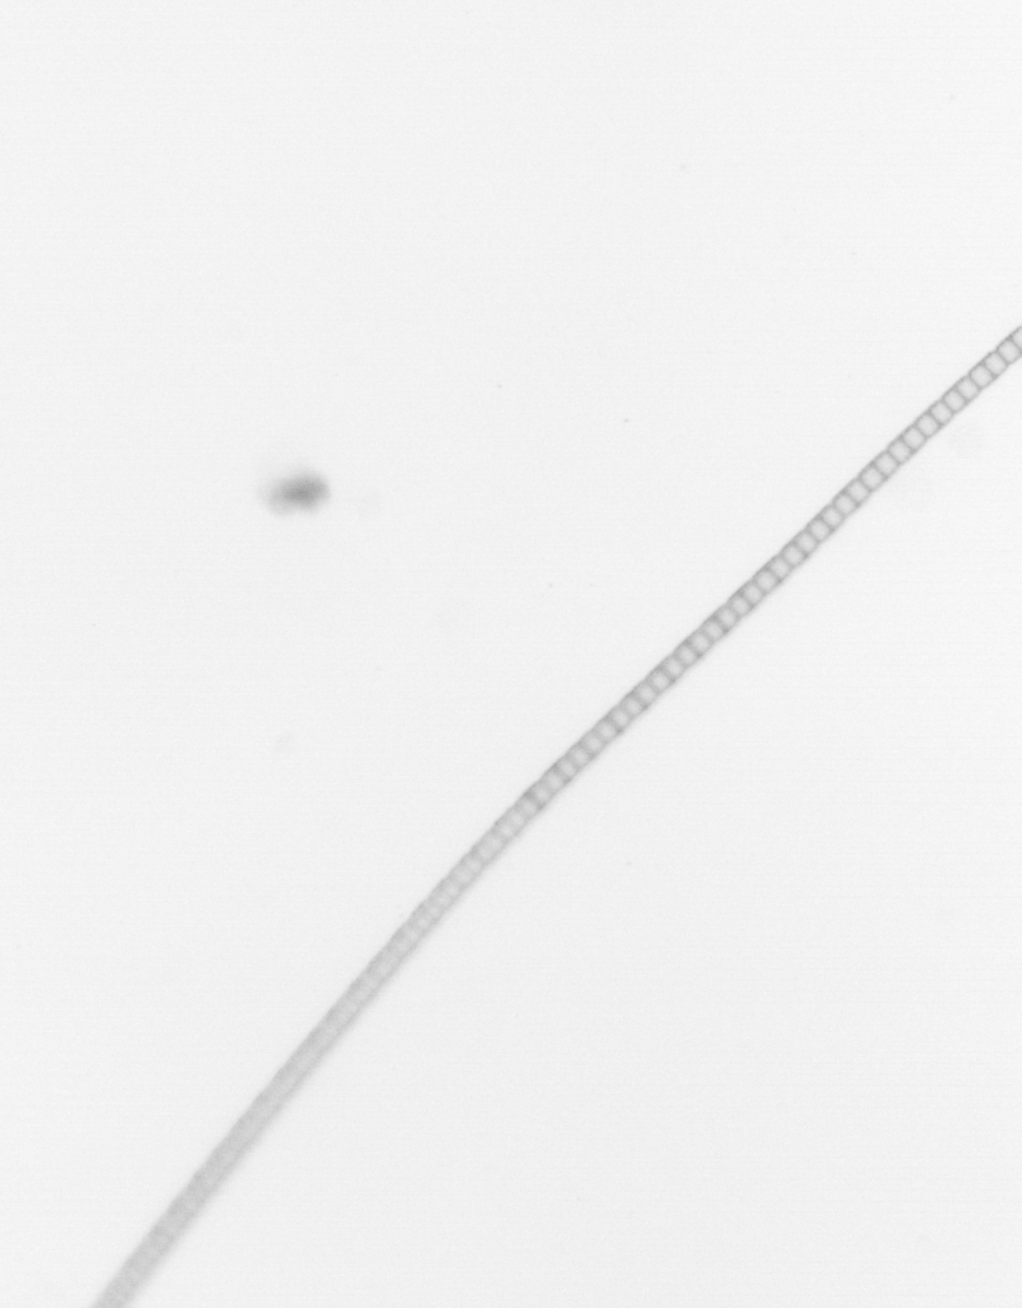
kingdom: Chromista
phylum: Ochrophyta
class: Bacillariophyceae
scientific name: Bacillariophyceae
